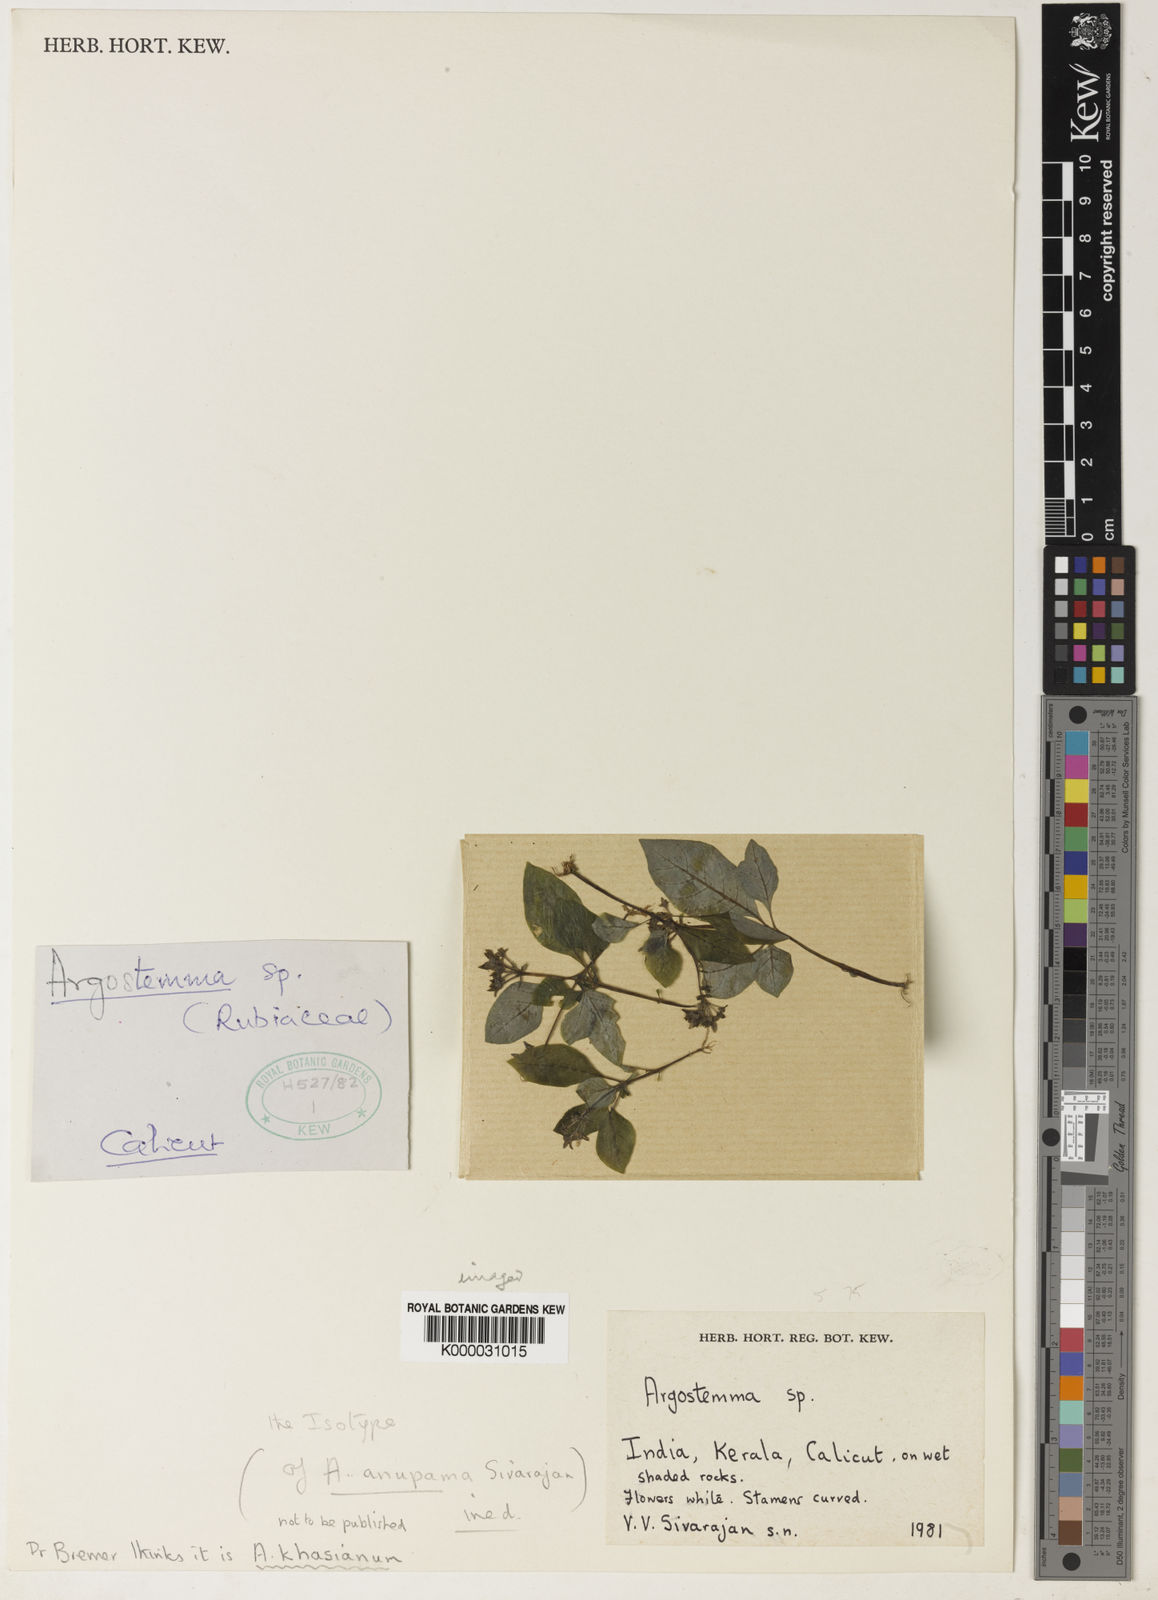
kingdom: Plantae
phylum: Tracheophyta
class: Magnoliopsida
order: Gentianales
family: Rubiaceae
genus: Argostemma
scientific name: Argostemma anupama
